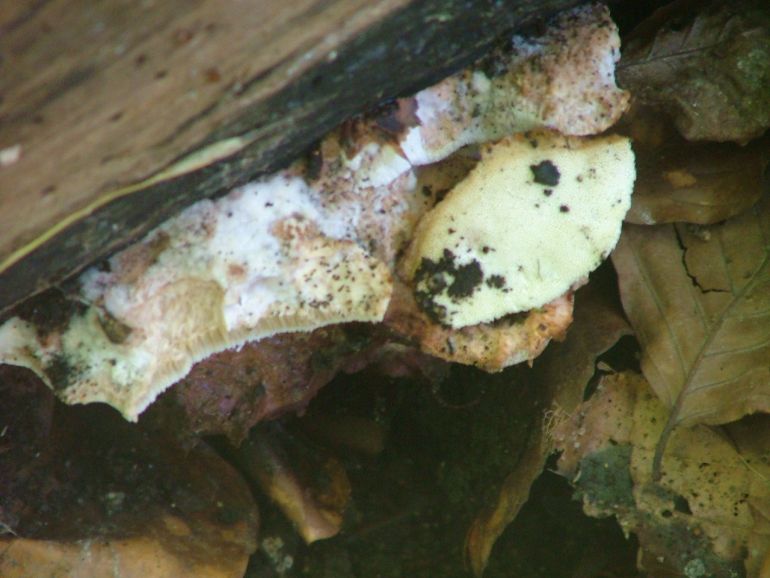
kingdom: Fungi
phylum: Basidiomycota
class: Agaricomycetes
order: Polyporales
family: Meruliaceae
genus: Pappia
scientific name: Pappia fissilis
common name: rosa fedtporesvamp
